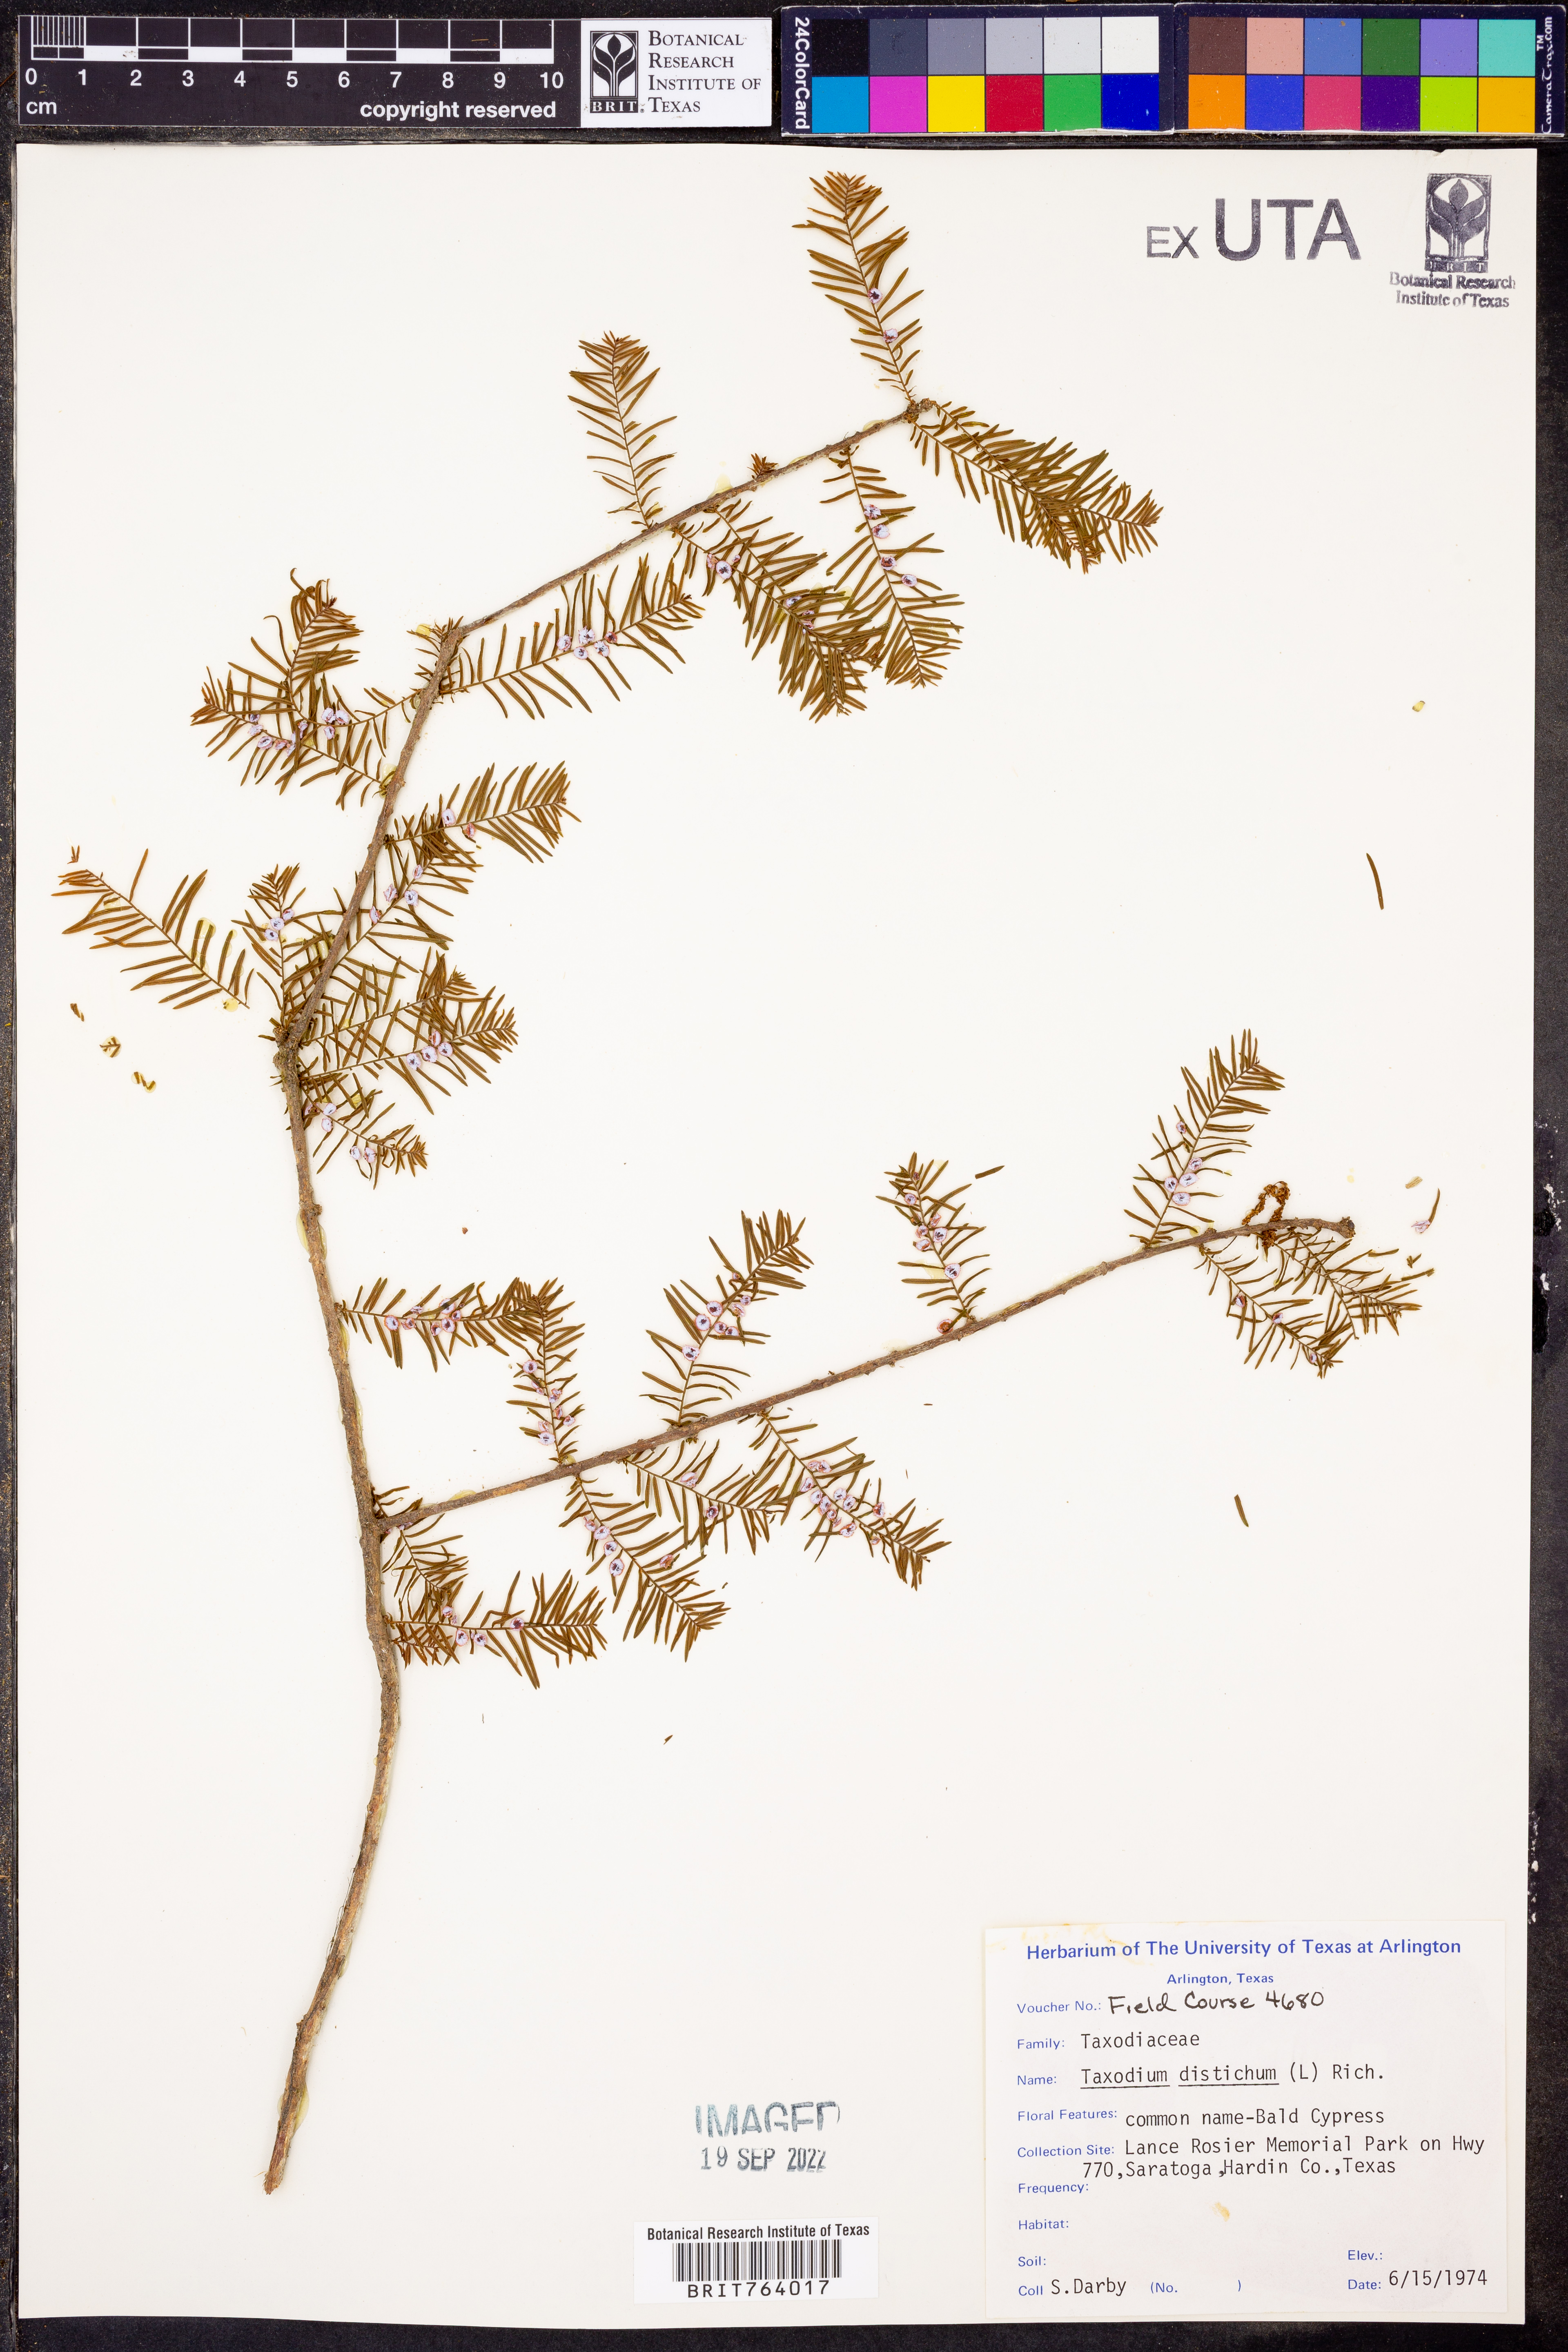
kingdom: Plantae
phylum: Tracheophyta
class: Pinopsida
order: Pinales
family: Cupressaceae
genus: Taxodium
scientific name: Taxodium distichum
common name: Bald cypress
